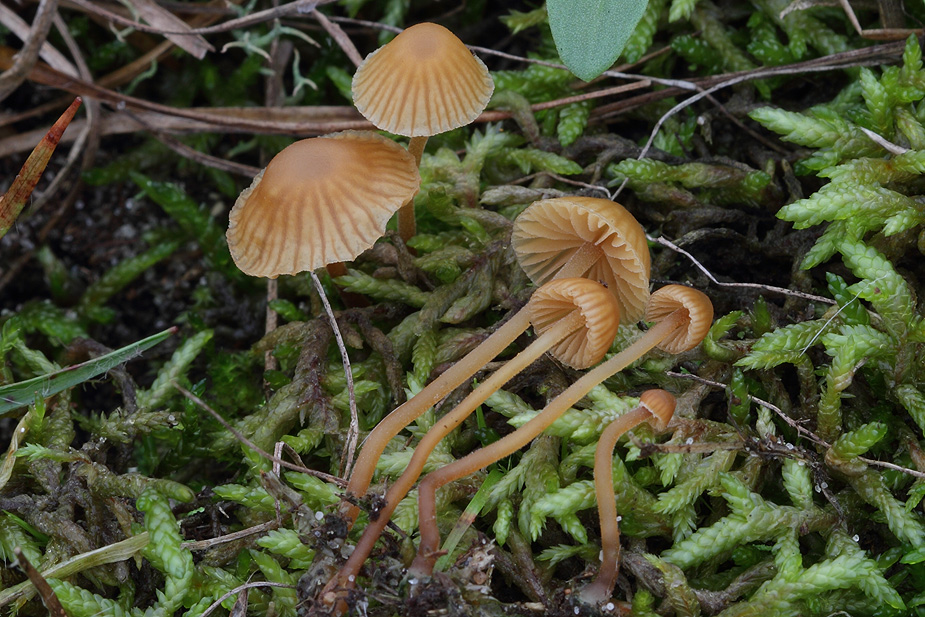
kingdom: Fungi
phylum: Basidiomycota
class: Agaricomycetes
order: Agaricales
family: Hymenogastraceae
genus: Galerina
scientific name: Galerina atkinsoniana
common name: Hairy bell
